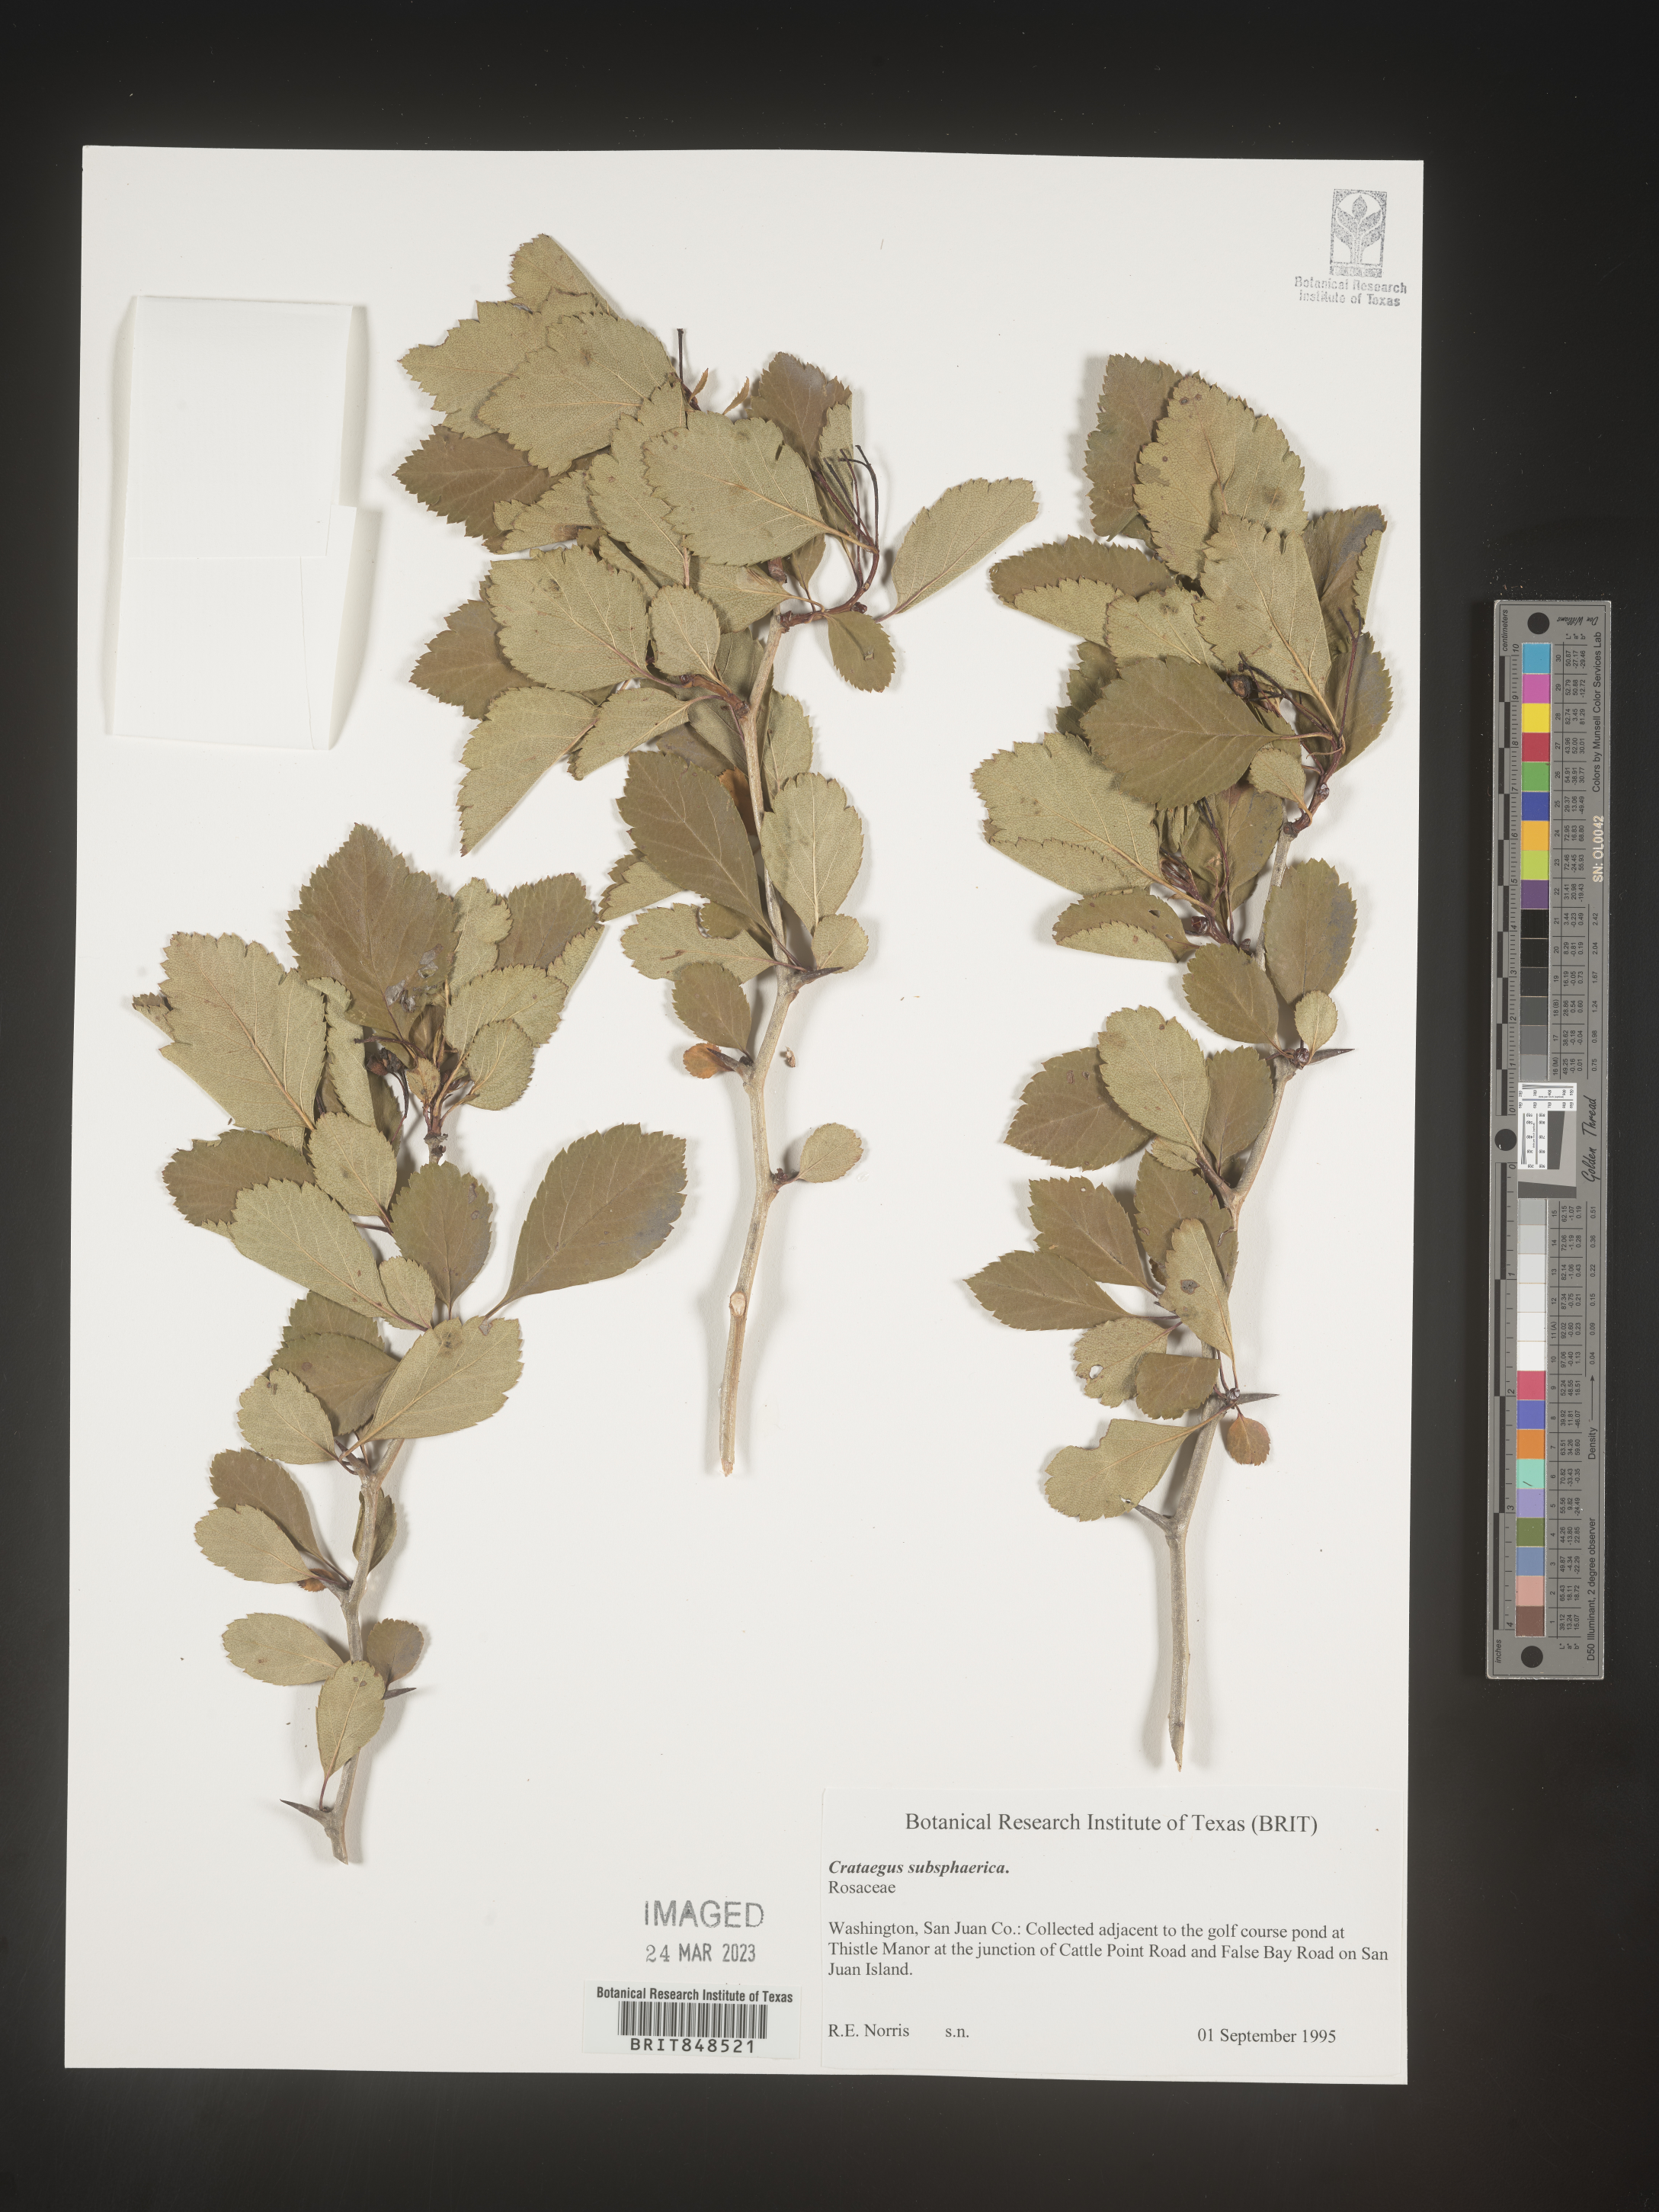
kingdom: Plantae
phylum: Tracheophyta
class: Magnoliopsida
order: Rosales
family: Rosaceae
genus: Crataegus
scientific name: Crataegus
